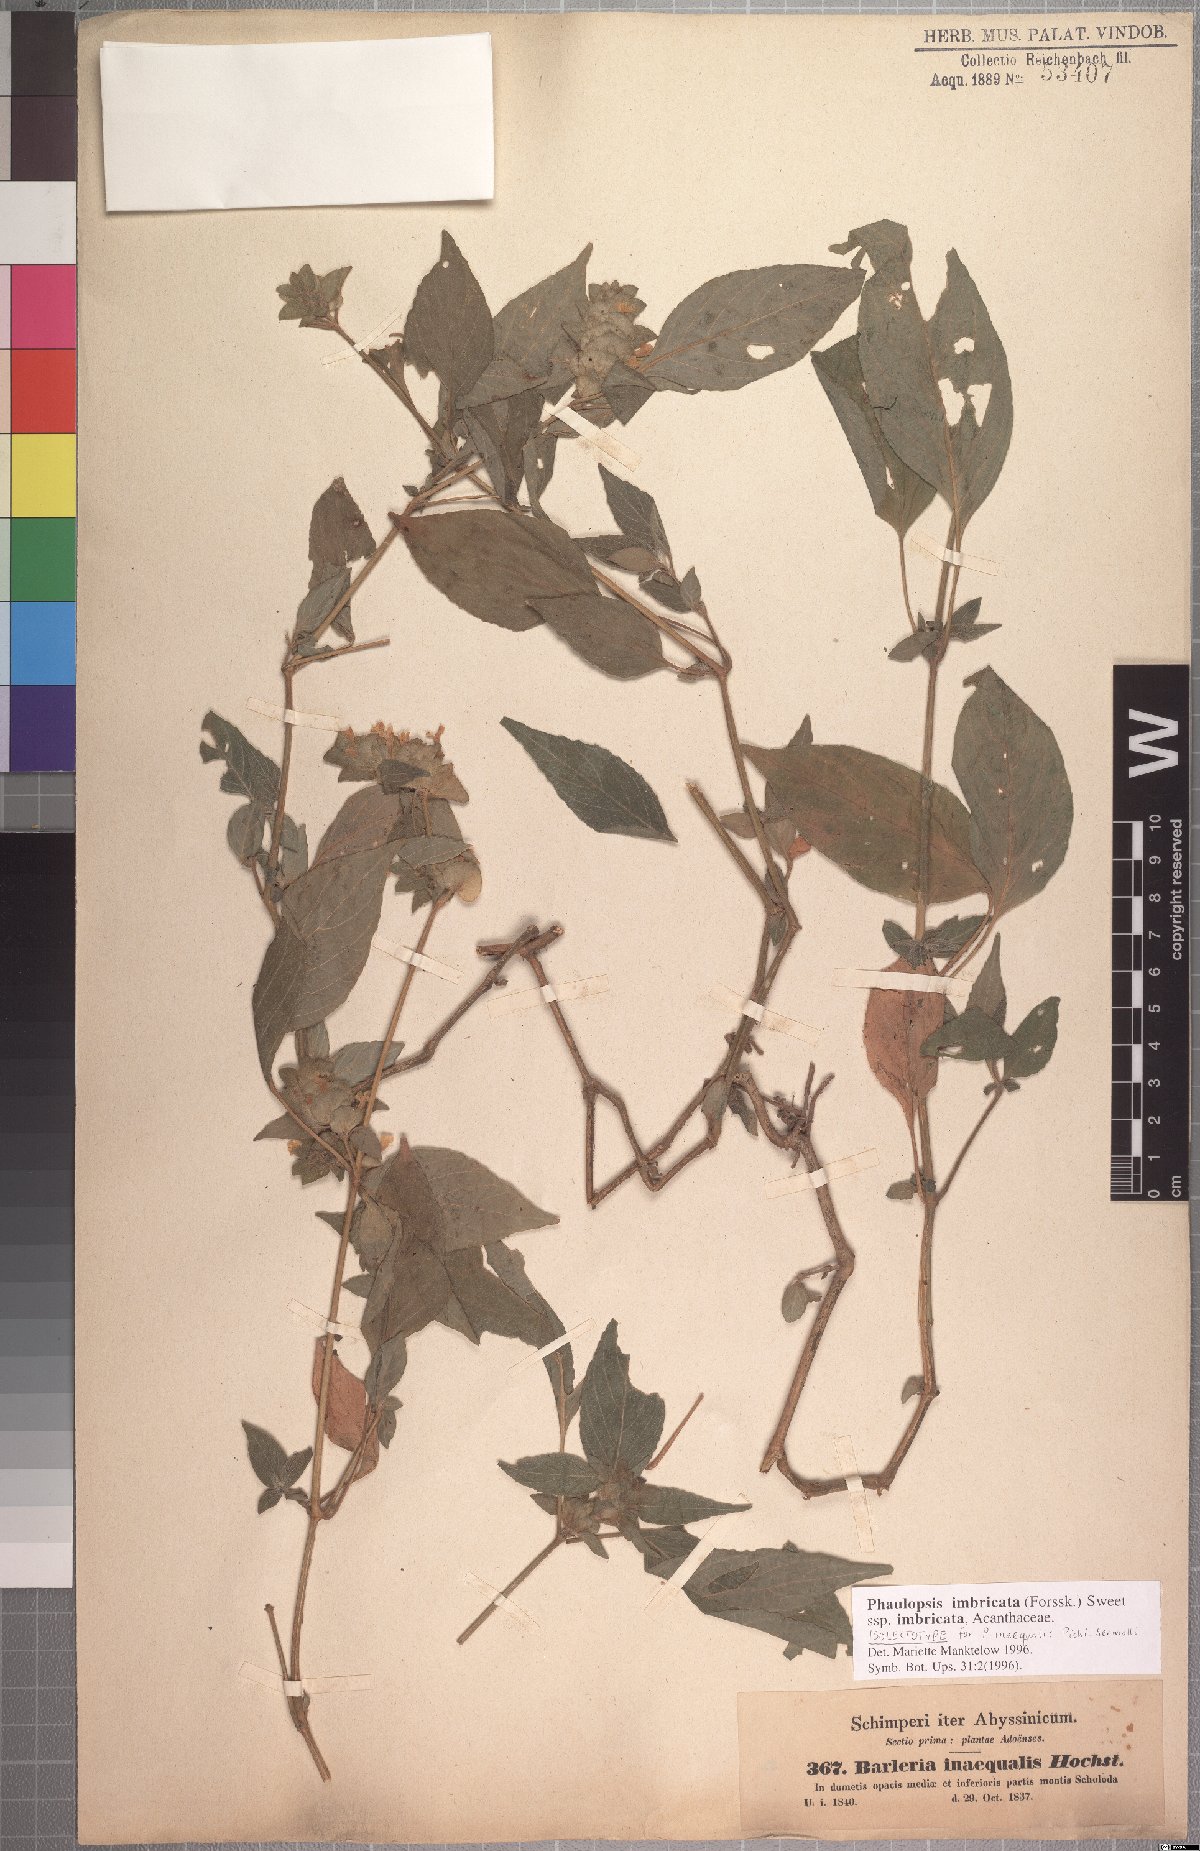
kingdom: Plantae
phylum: Tracheophyta
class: Magnoliopsida
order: Lamiales
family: Acanthaceae
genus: Phaulopsis
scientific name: Phaulopsis imbricata
